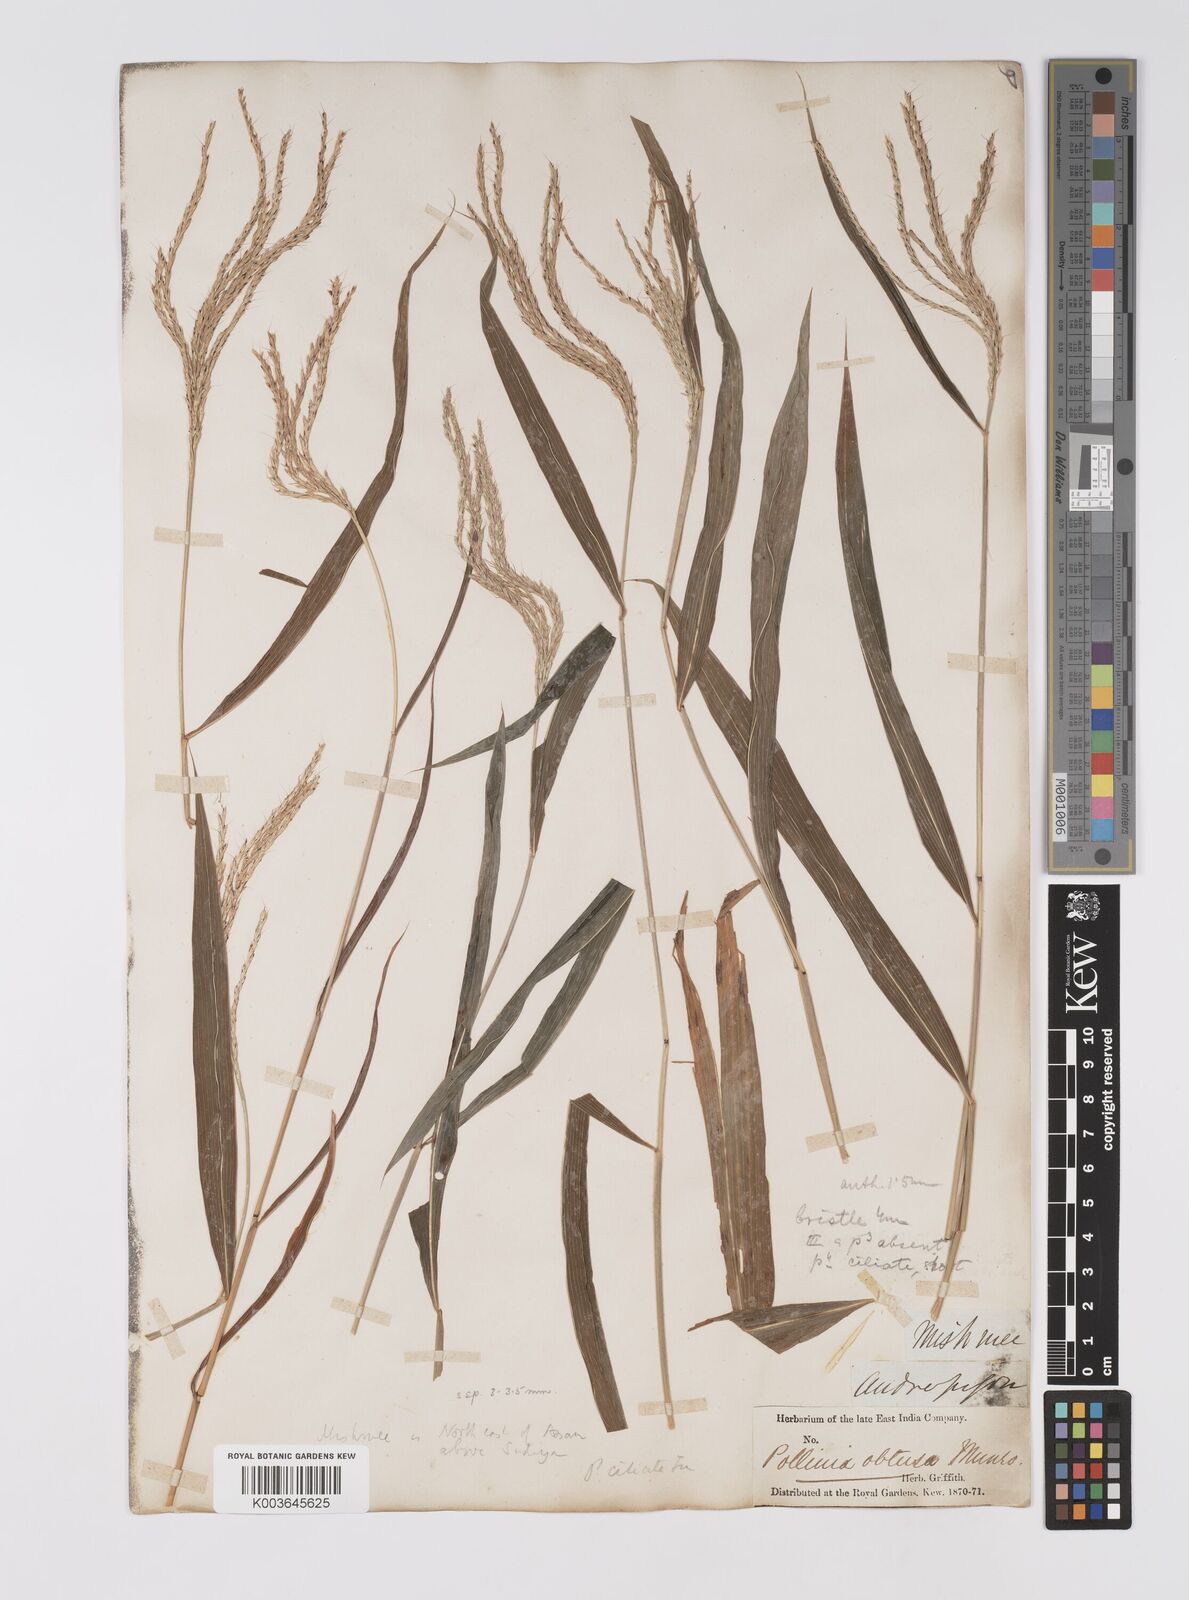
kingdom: Plantae
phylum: Tracheophyta
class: Liliopsida
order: Poales
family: Poaceae
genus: Microstegium
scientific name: Microstegium fasciculatum
